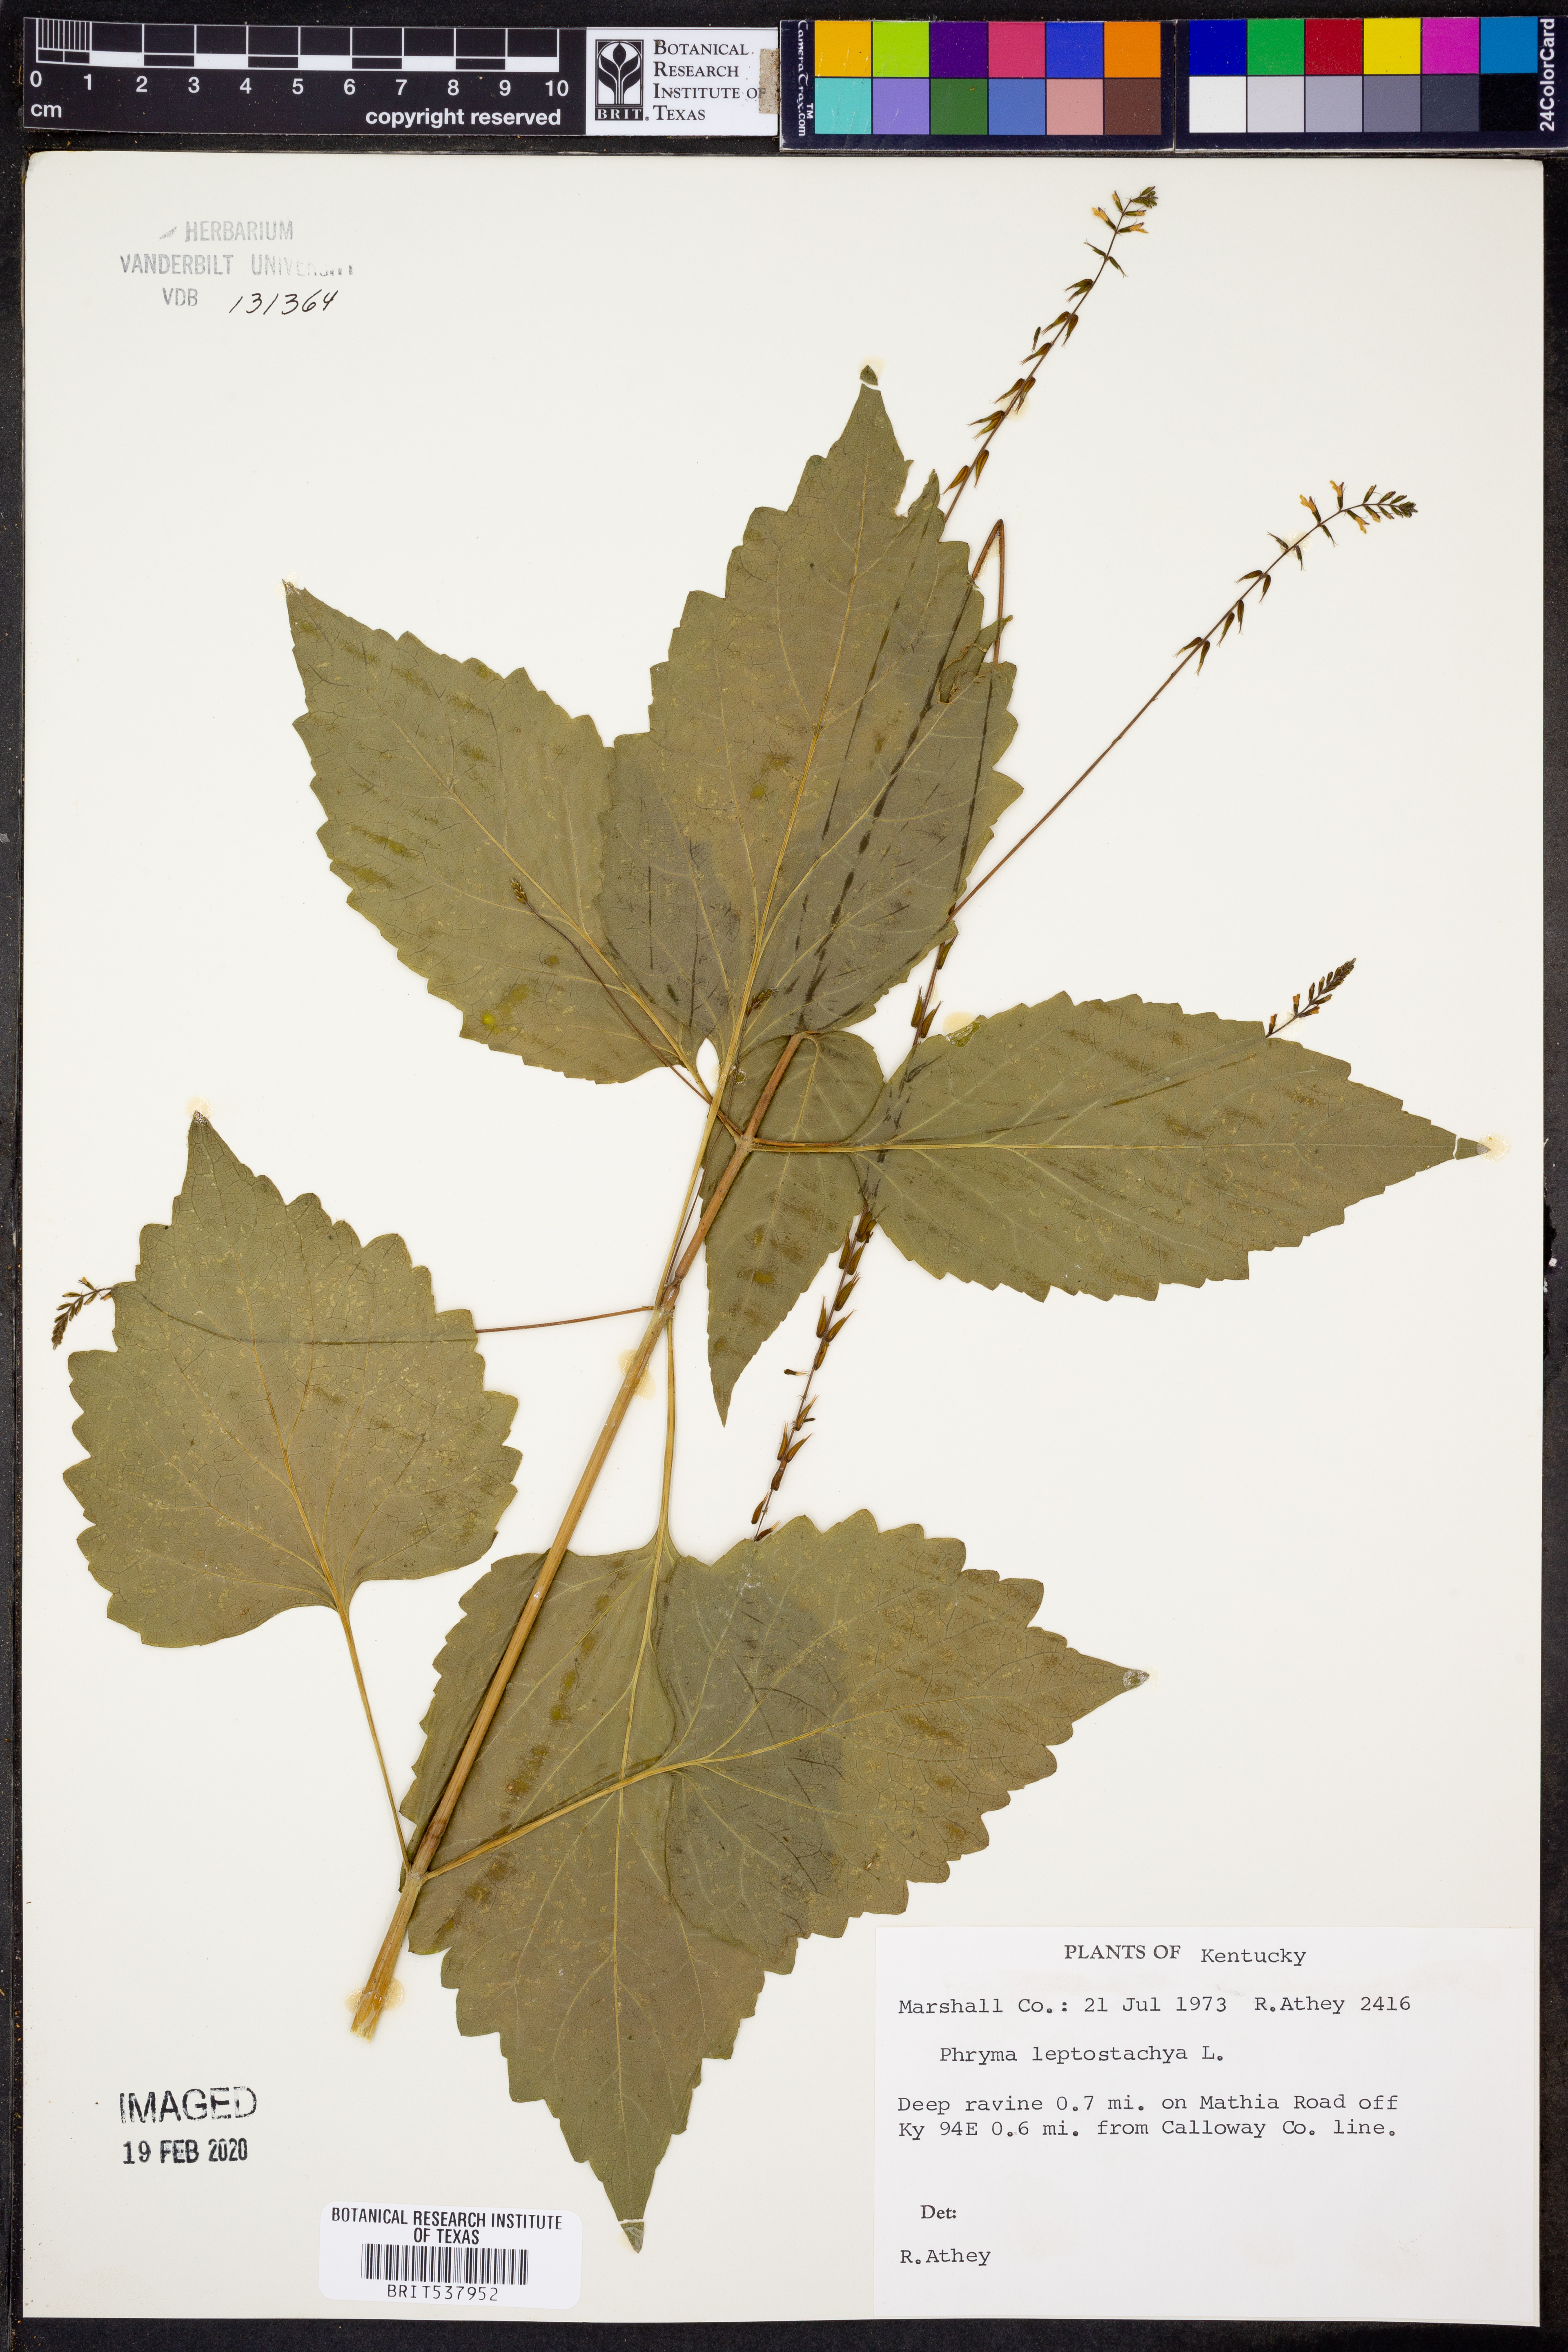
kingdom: Plantae
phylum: Tracheophyta
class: Magnoliopsida
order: Lamiales
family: Phrymaceae
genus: Phryma
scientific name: Phryma leptostachya
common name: American lopseed
